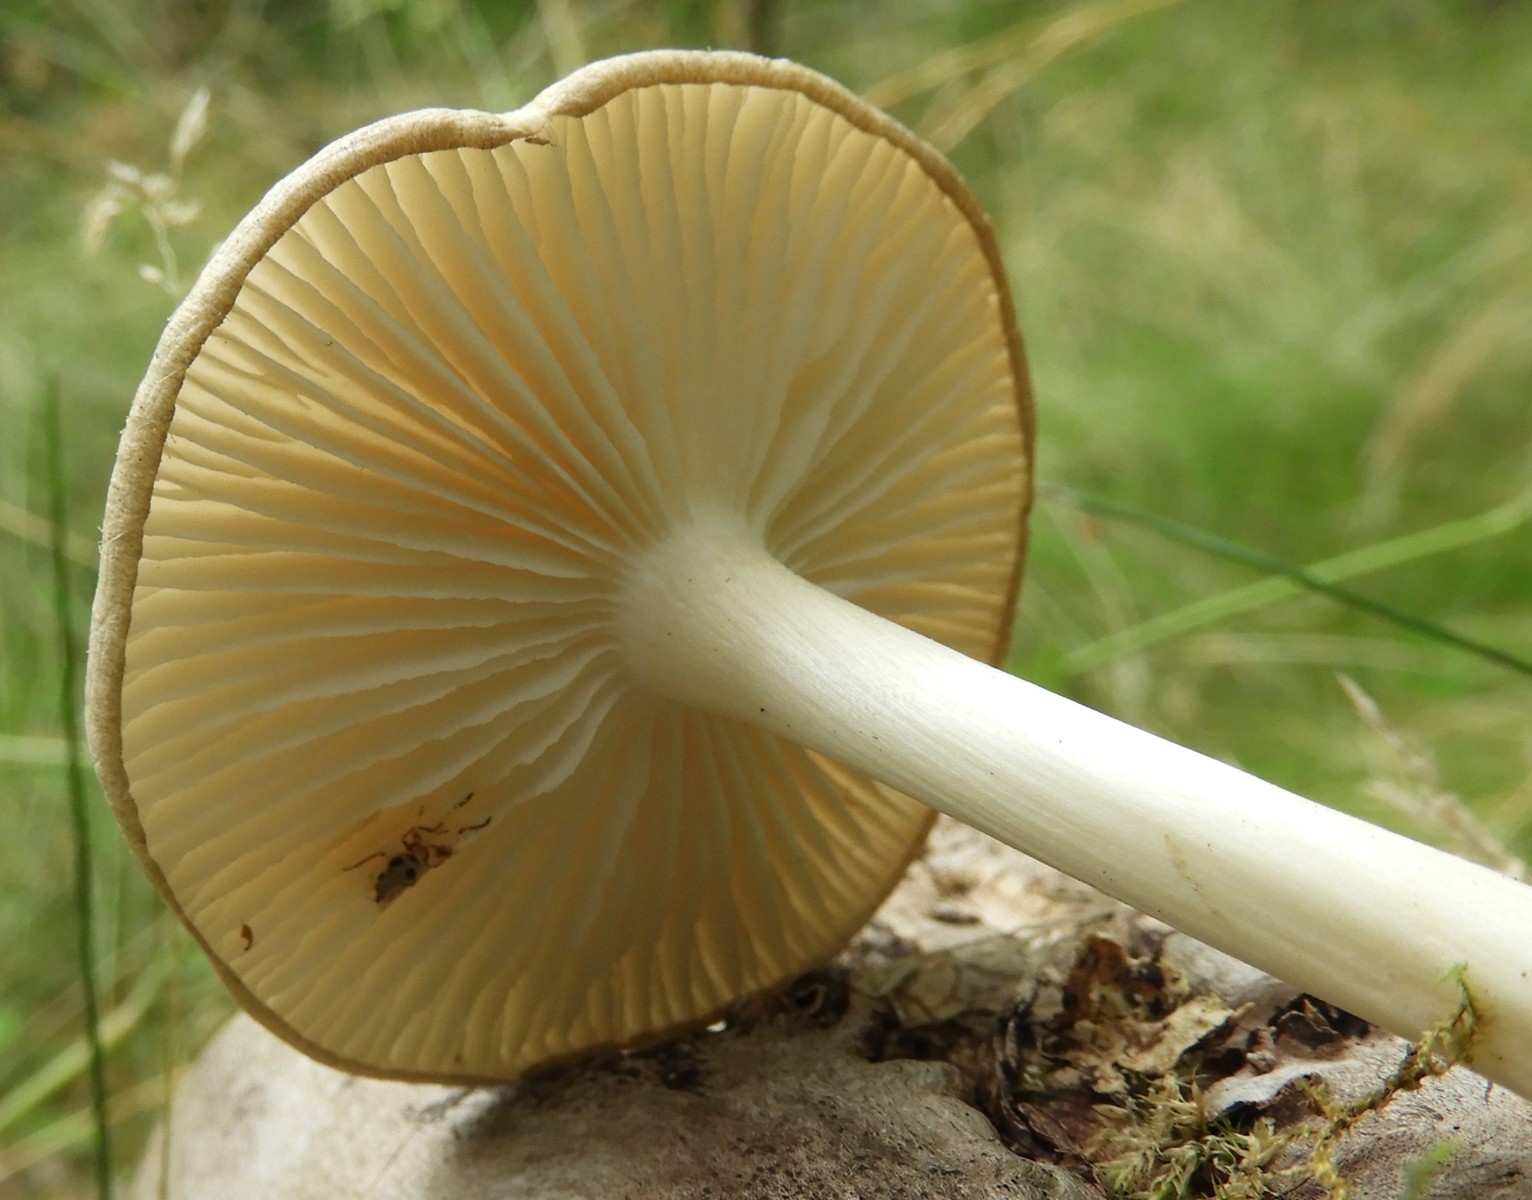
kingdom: Fungi
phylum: Basidiomycota
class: Agaricomycetes
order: Agaricales
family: Tricholomataceae
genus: Megacollybia
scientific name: Megacollybia platyphylla
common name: bredbladet væbnerhat
